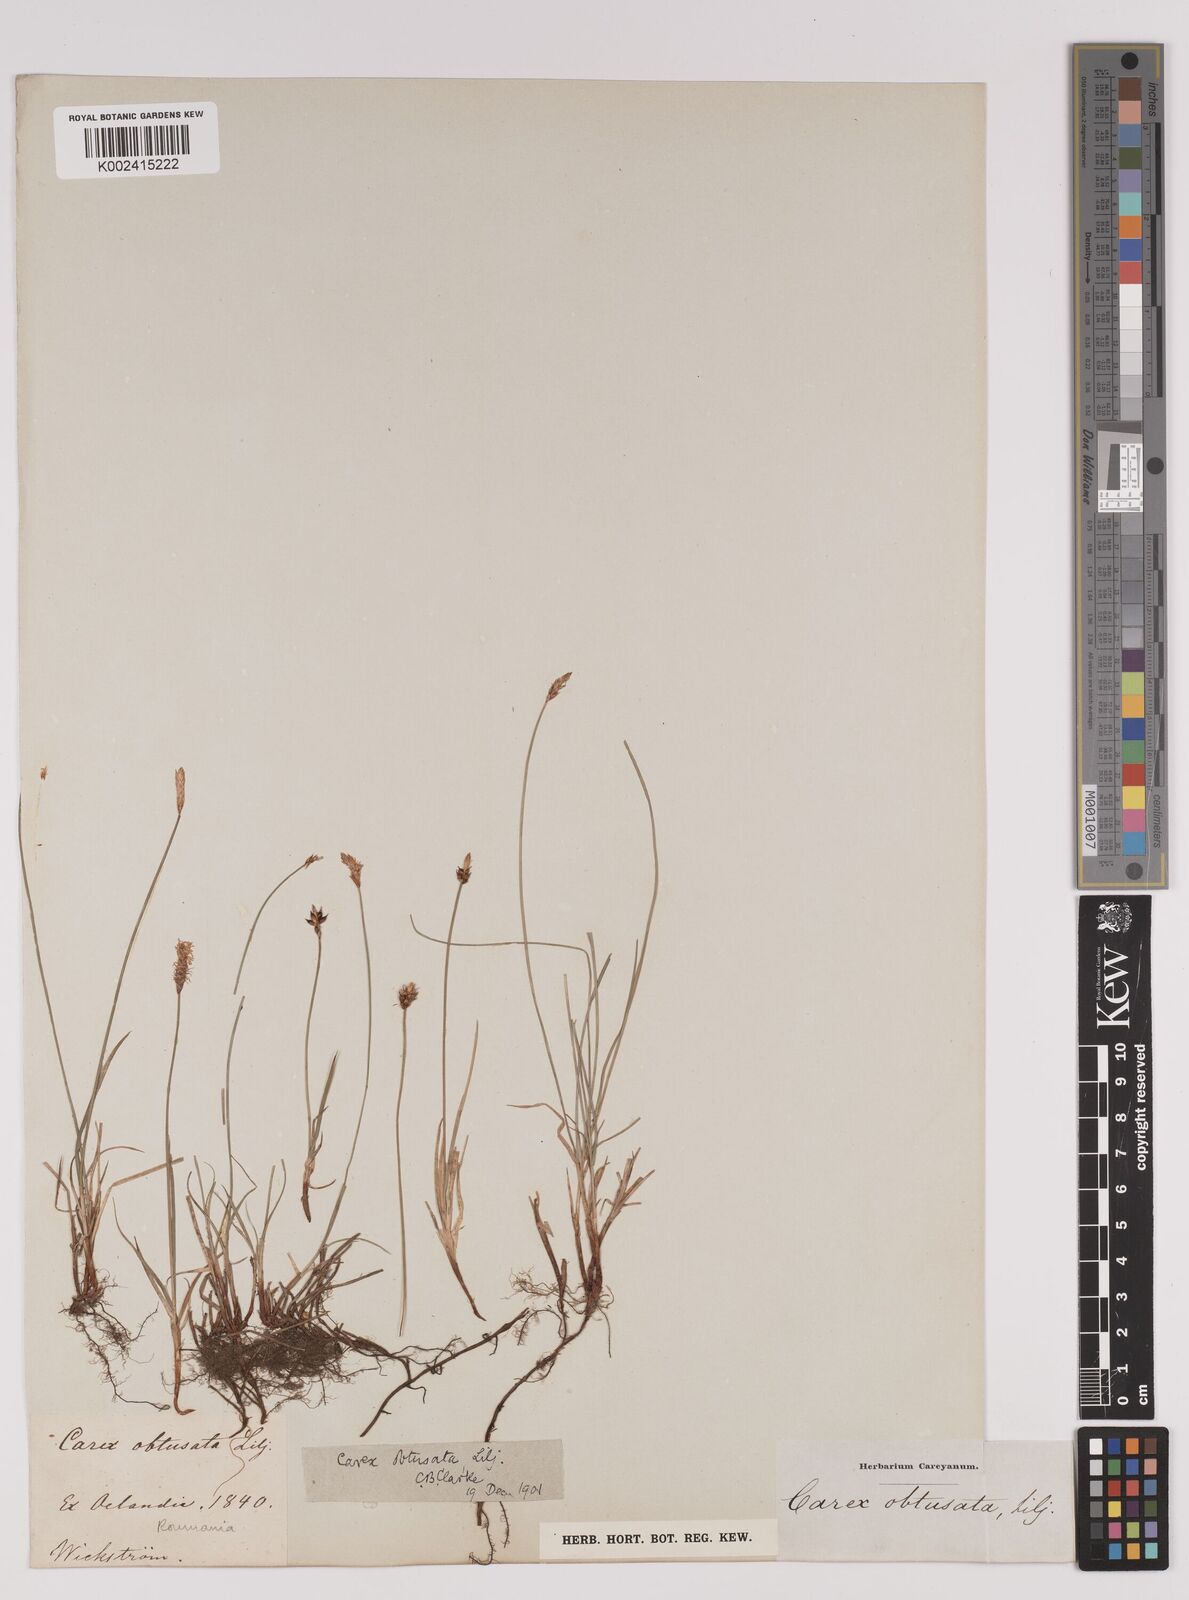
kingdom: Plantae
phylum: Tracheophyta
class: Liliopsida
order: Poales
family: Cyperaceae
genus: Carex
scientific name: Carex obtusata
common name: Blunt sedge
